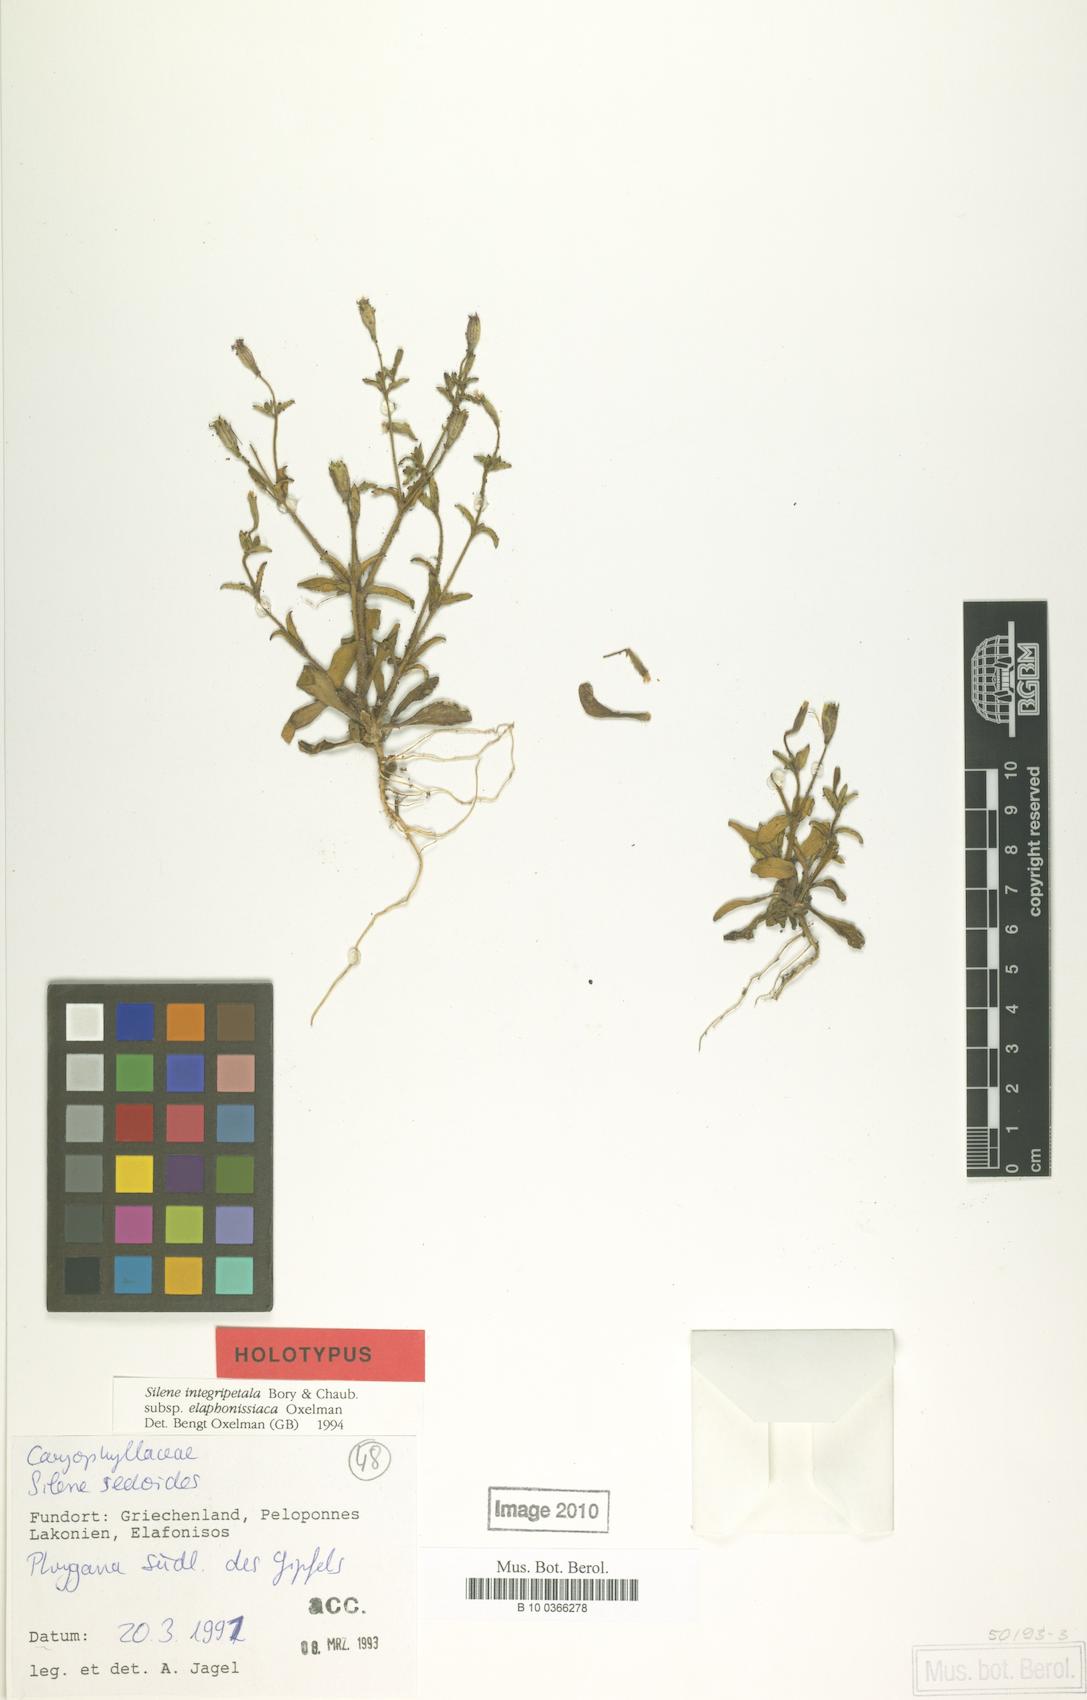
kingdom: Plantae
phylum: Tracheophyta
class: Magnoliopsida
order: Caryophyllales
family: Caryophyllaceae
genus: Silene
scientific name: Silene integripetala
